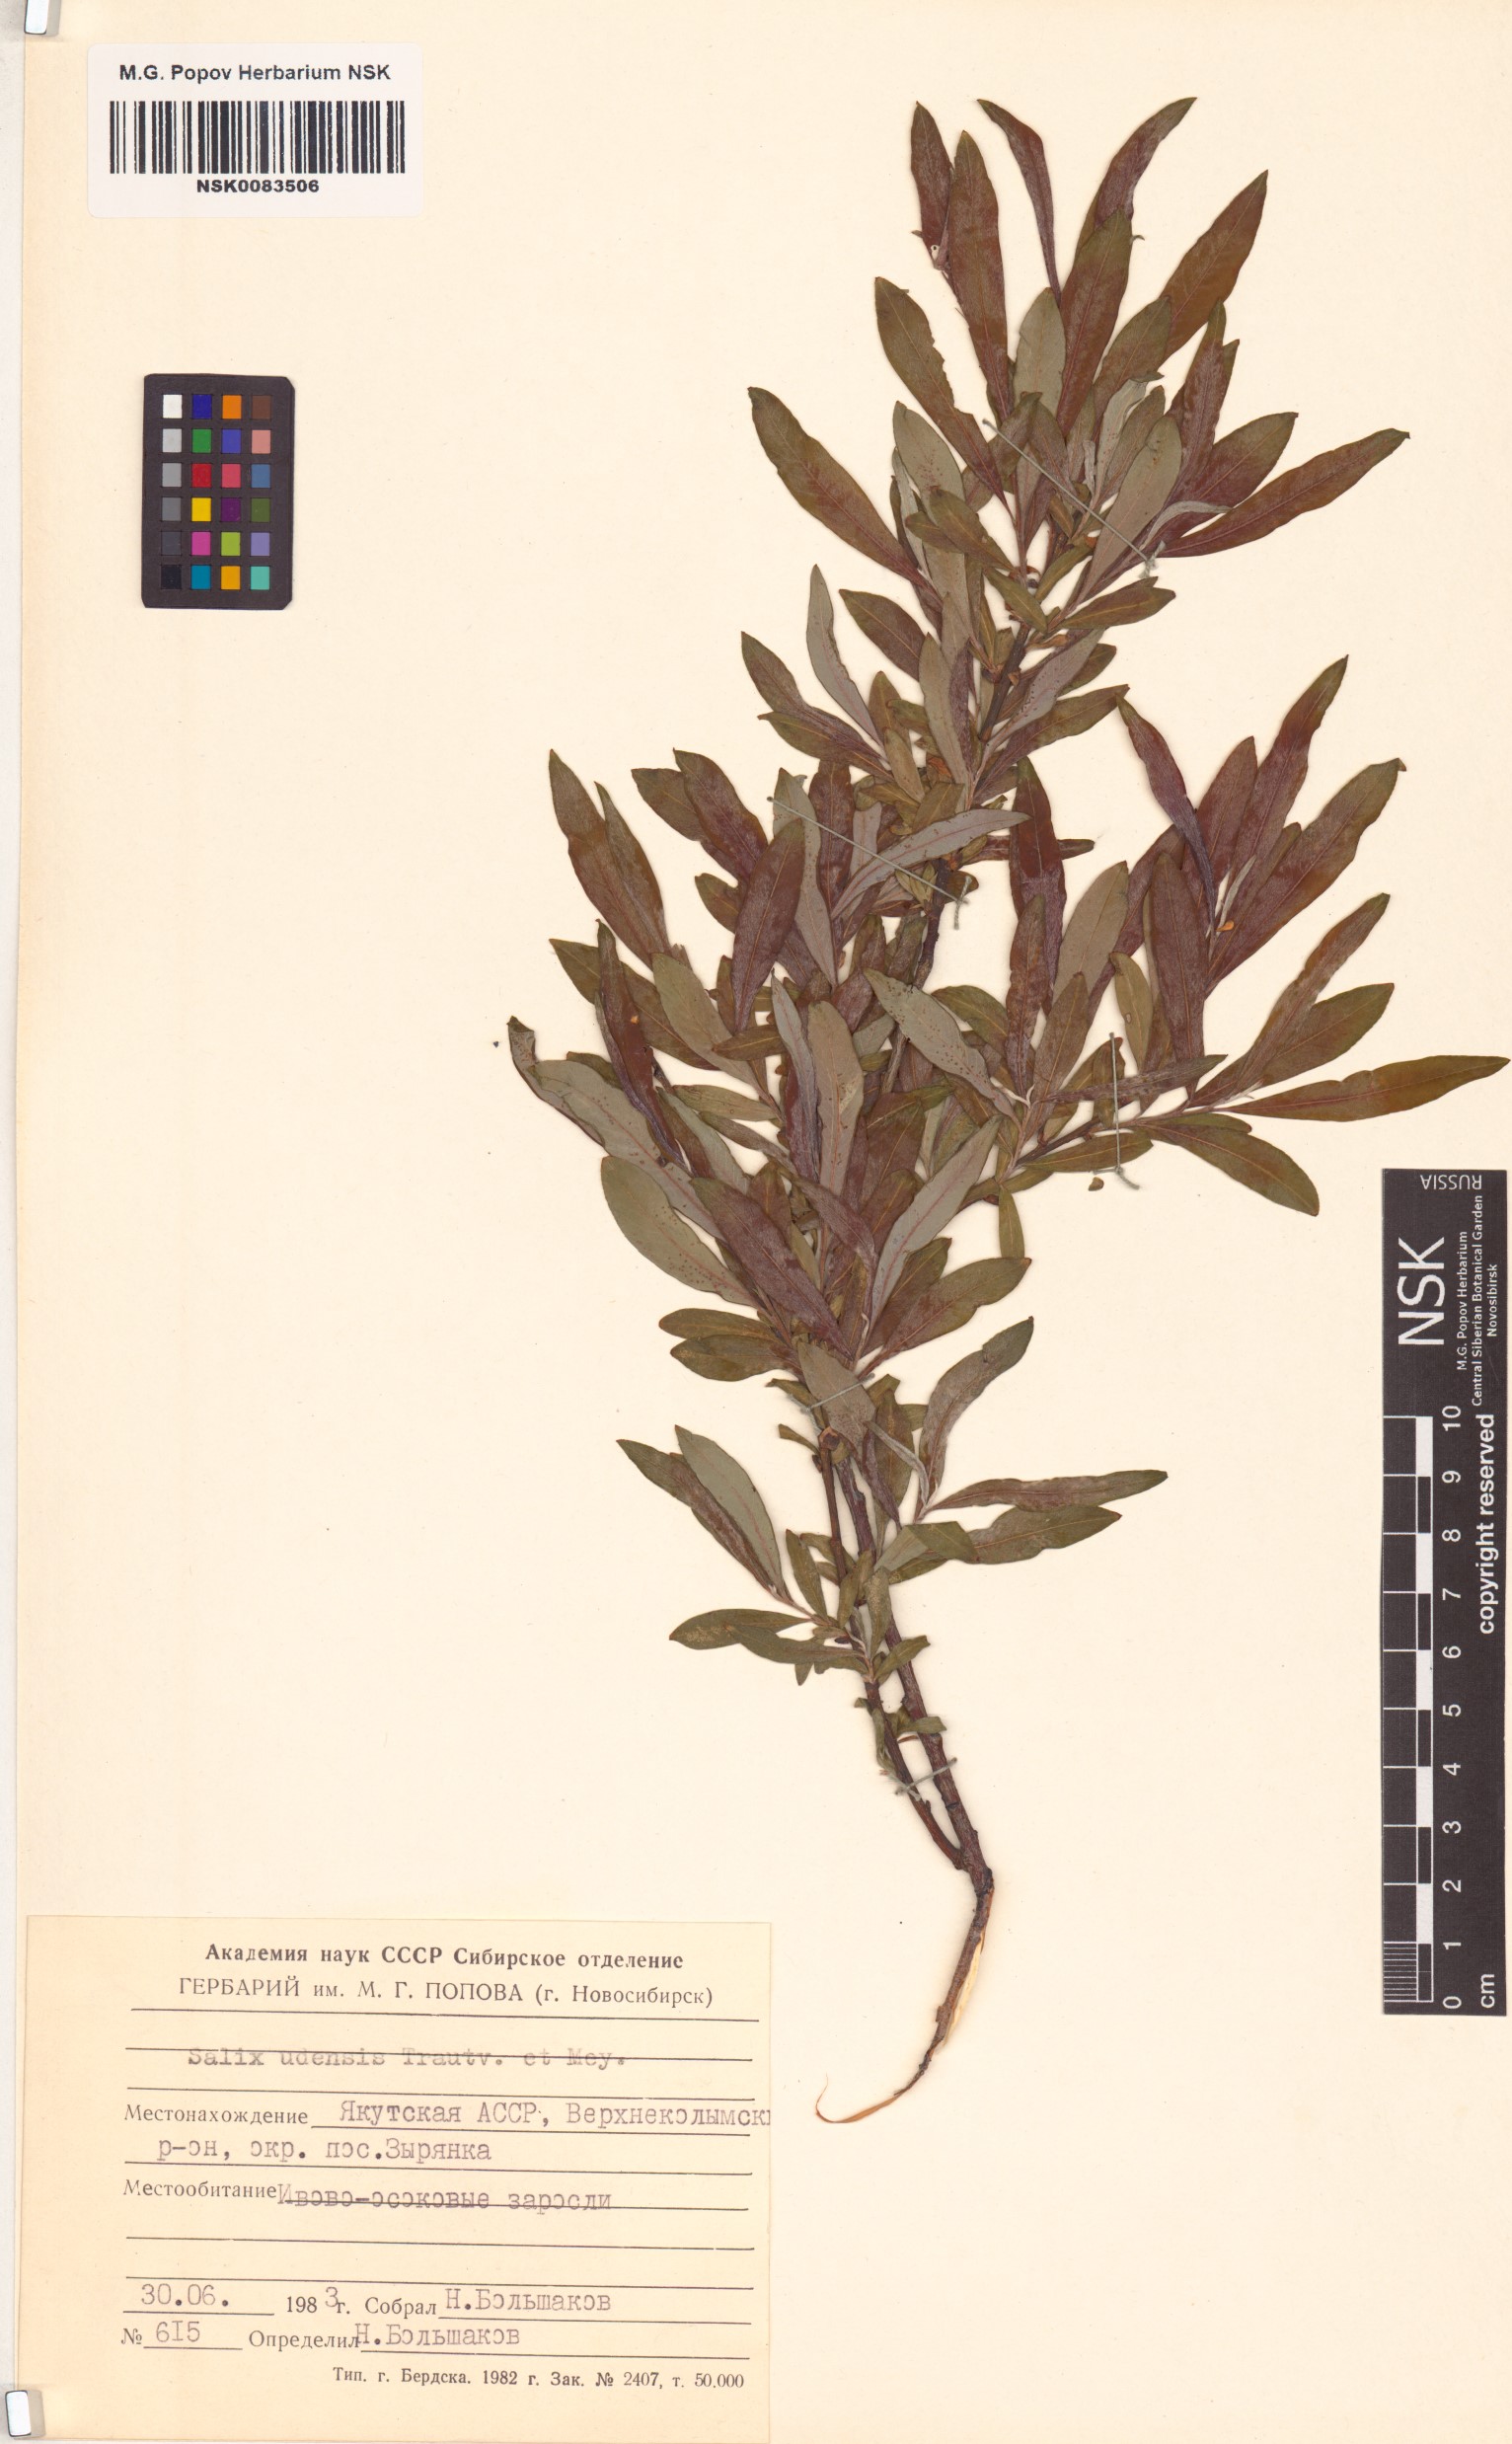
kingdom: Plantae
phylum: Tracheophyta
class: Magnoliopsida
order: Malpighiales
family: Salicaceae
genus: Salix
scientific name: Salix udensis
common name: Sachalin willow
